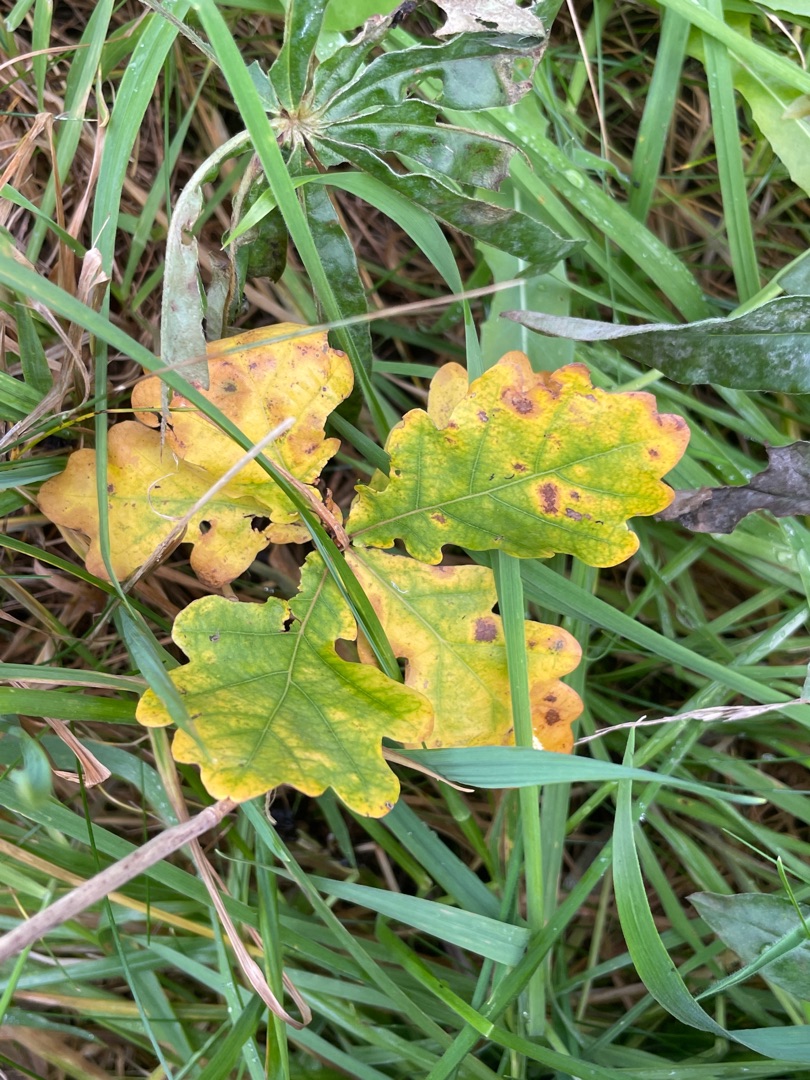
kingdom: Plantae
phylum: Tracheophyta
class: Magnoliopsida
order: Fagales
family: Fagaceae
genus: Quercus
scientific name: Quercus robur
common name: Stilk-eg/almindelig eg
